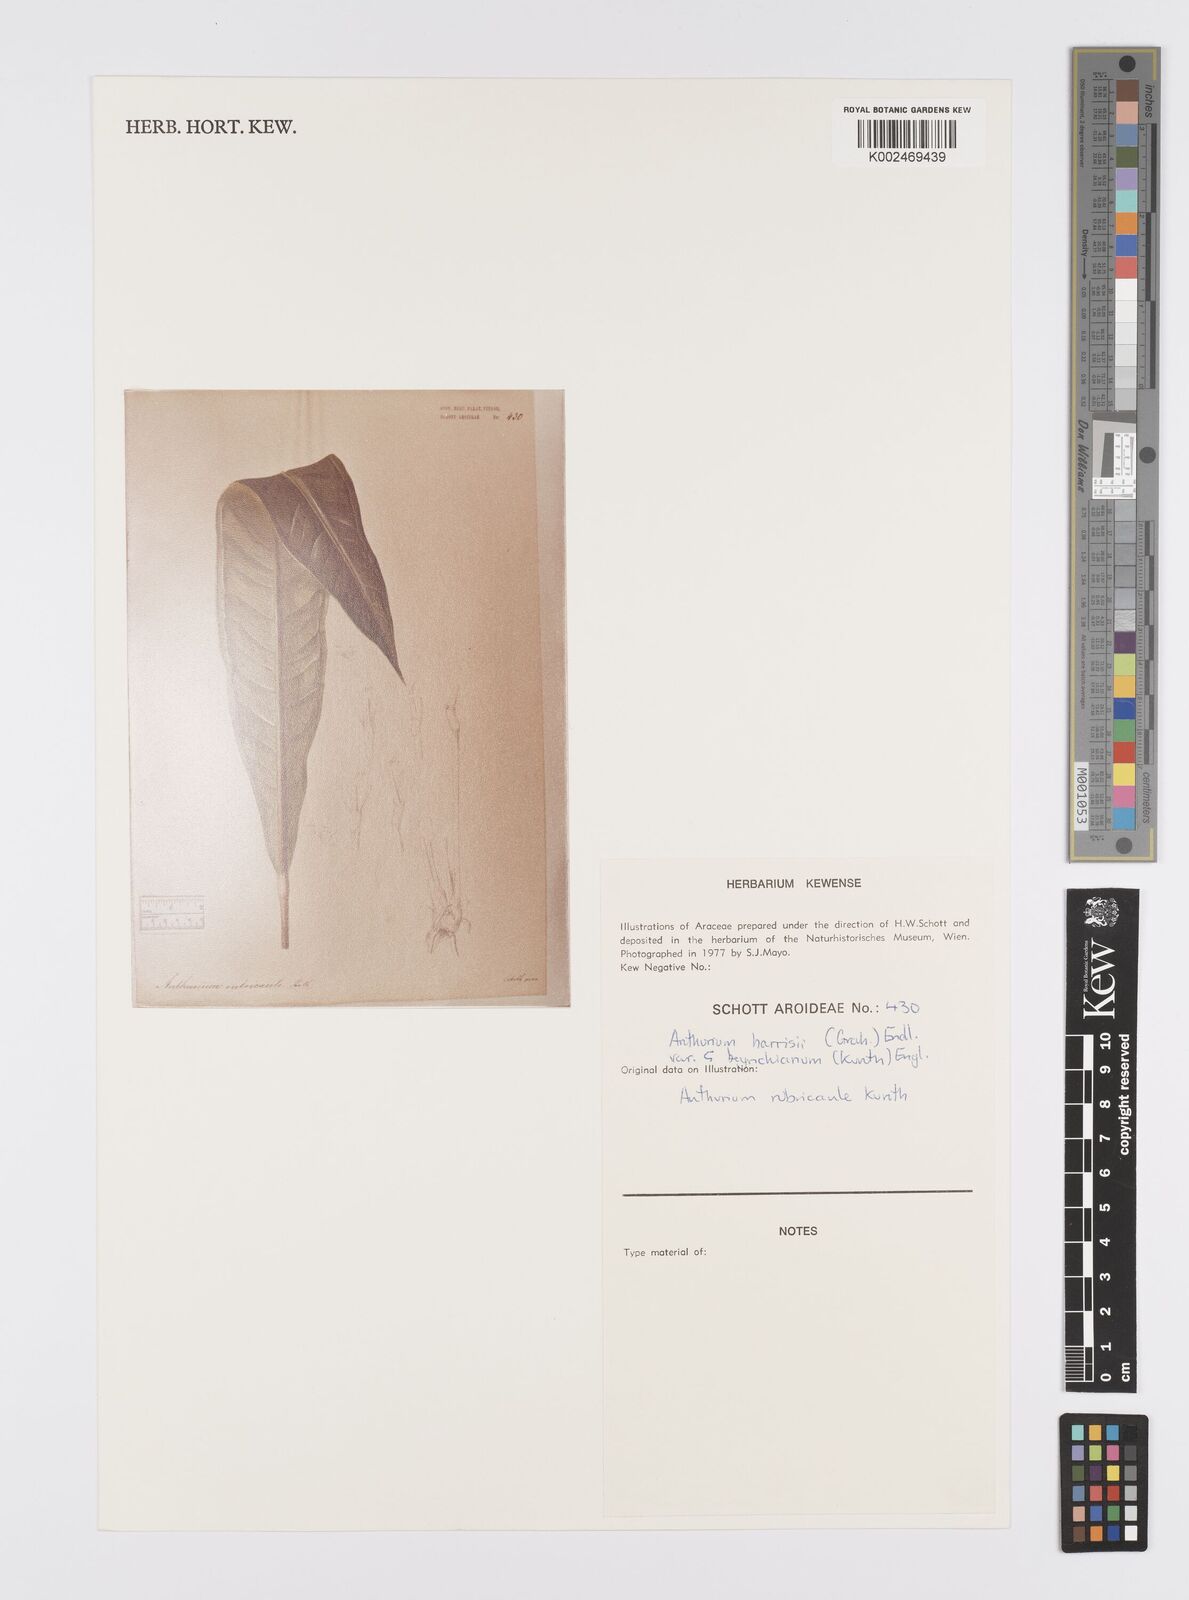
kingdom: Plantae
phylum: Tracheophyta
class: Liliopsida
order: Alismatales
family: Araceae
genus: Anthurium
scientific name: Anthurium intermedium
